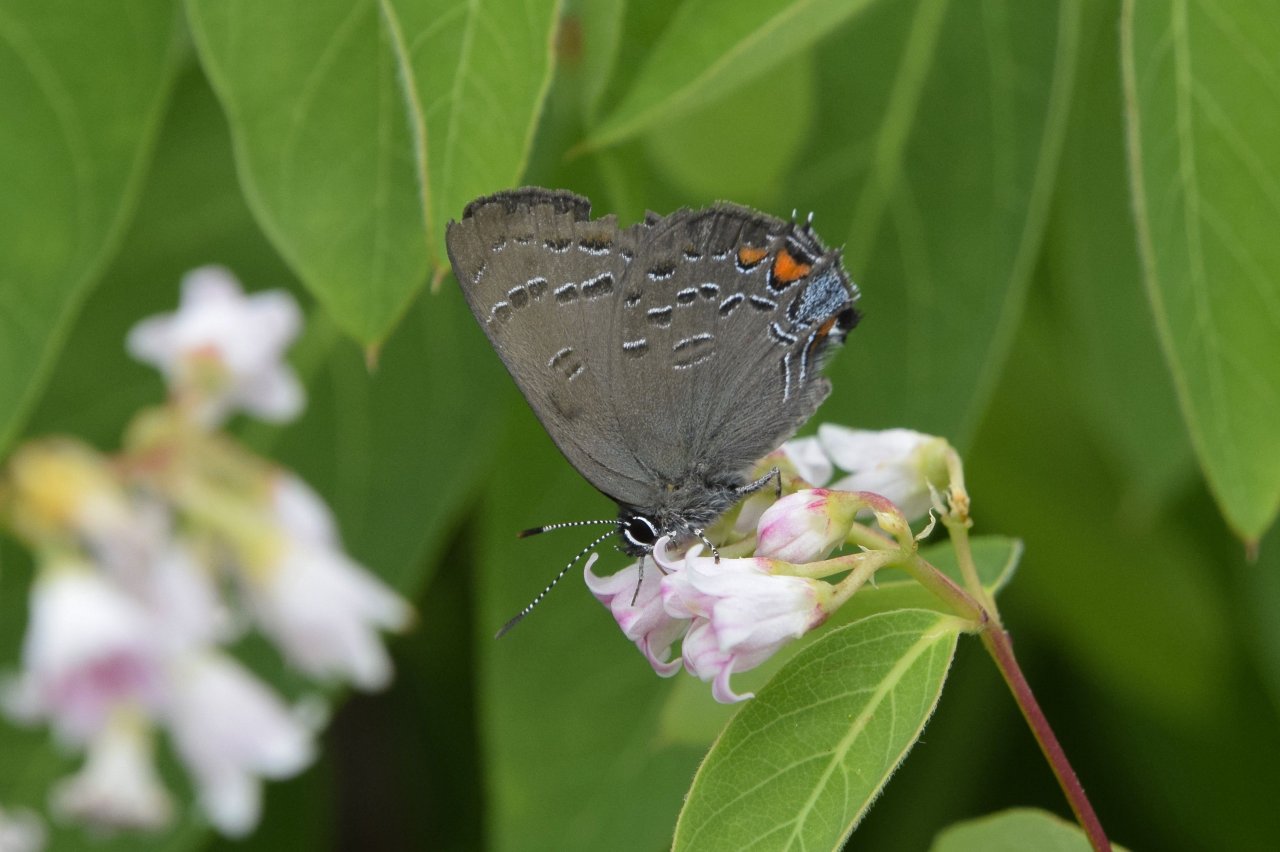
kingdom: Animalia
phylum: Arthropoda
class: Insecta
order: Lepidoptera
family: Lycaenidae
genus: Satyrium
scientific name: Satyrium calanus
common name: Banded Hairstreak
